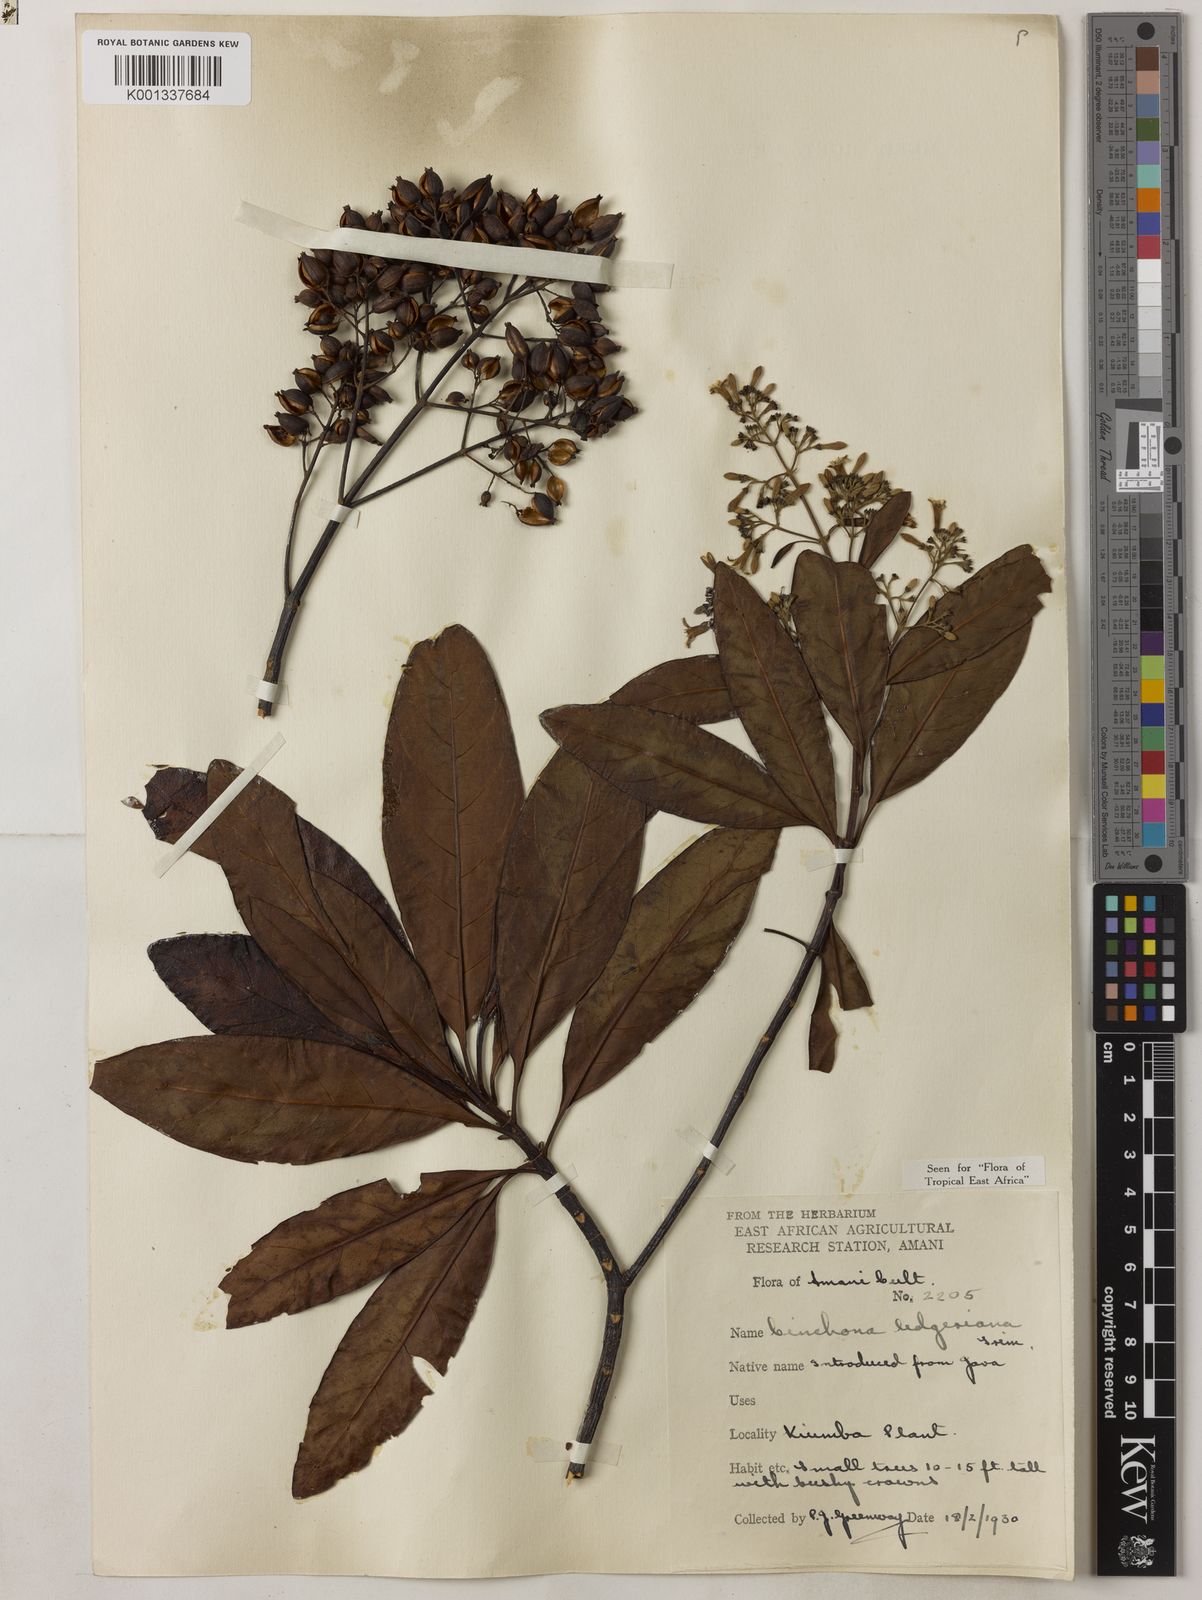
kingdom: Plantae
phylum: Tracheophyta
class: Magnoliopsida
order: Gentianales
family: Rubiaceae
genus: Cinchona
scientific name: Cinchona calisaya
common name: Ledgerbark
